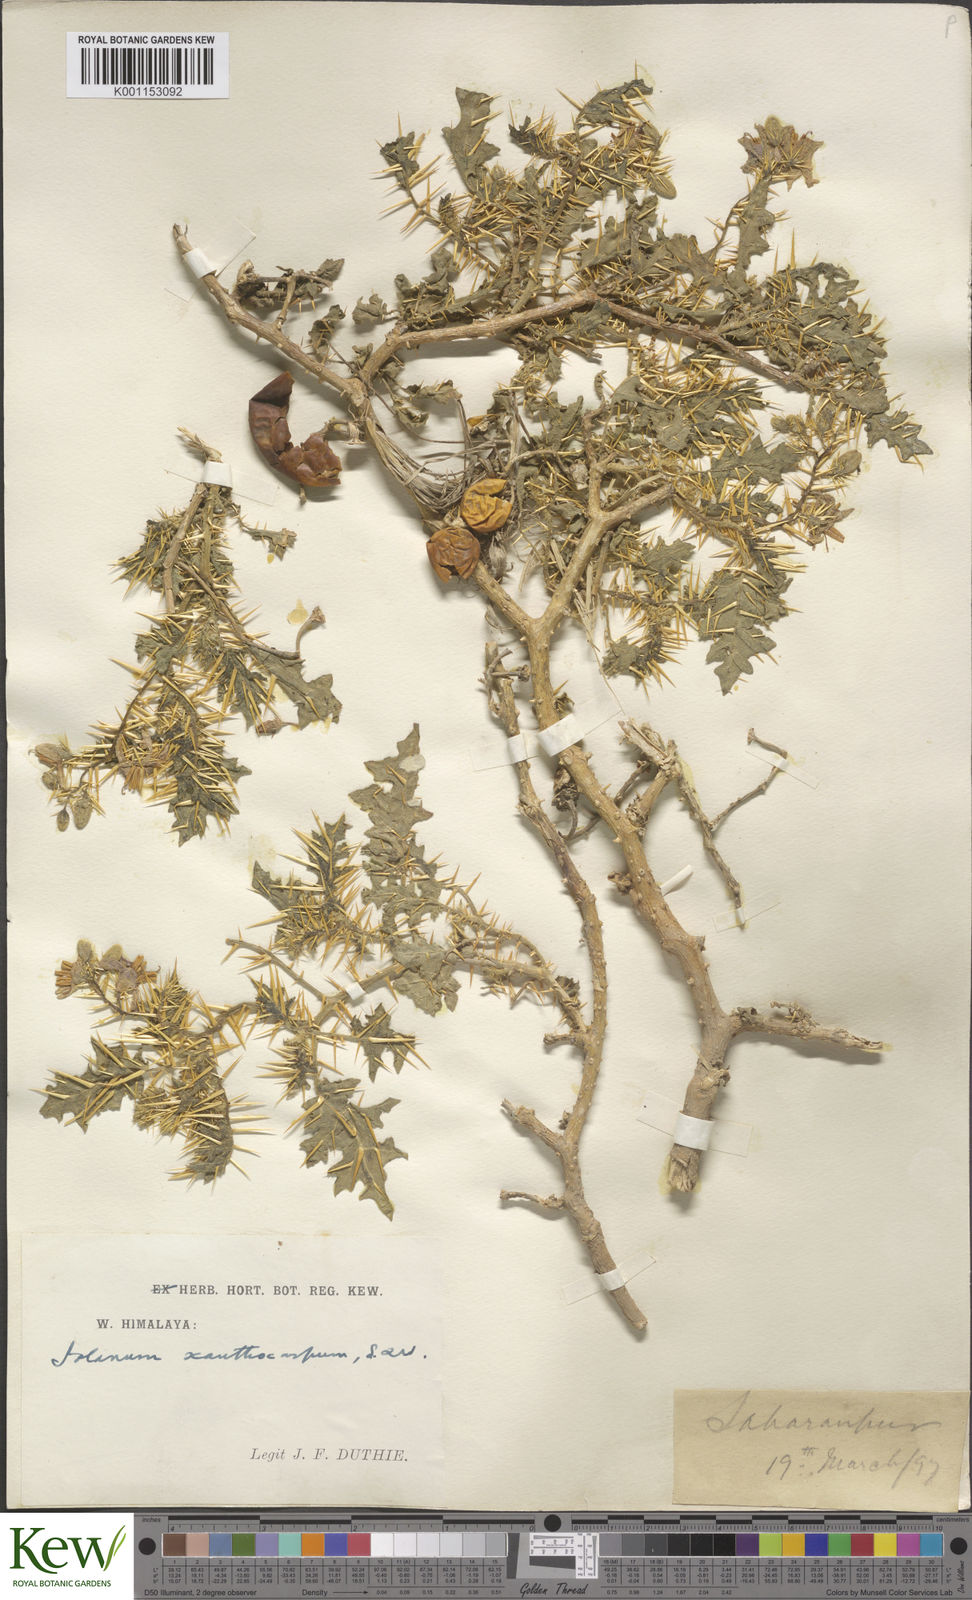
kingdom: Plantae
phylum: Tracheophyta
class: Magnoliopsida
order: Solanales
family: Solanaceae
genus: Solanum
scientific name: Solanum virginianum
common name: Surattense nightshade
